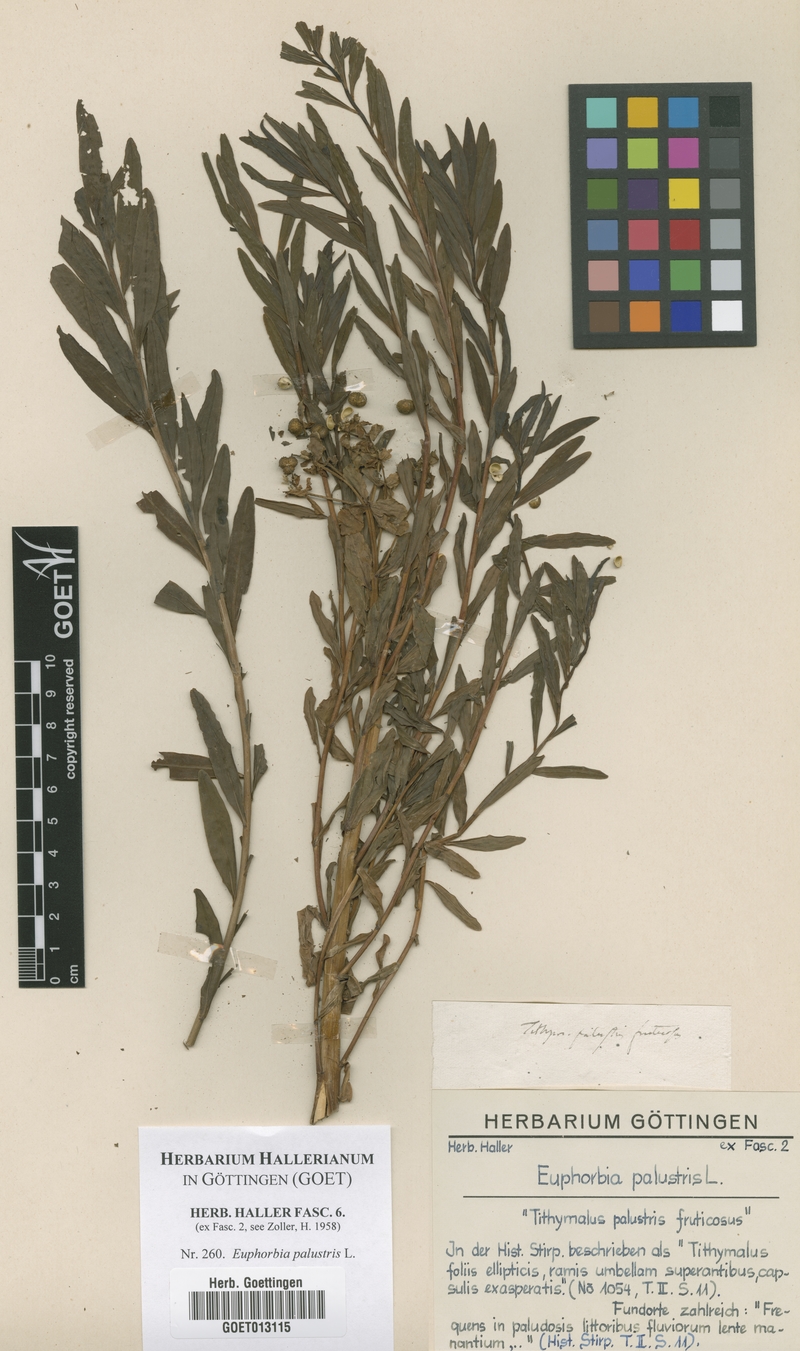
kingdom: Plantae
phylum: Tracheophyta
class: Magnoliopsida
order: Malpighiales
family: Euphorbiaceae
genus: Euphorbia
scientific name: Euphorbia palustris
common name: Marsh spurge
